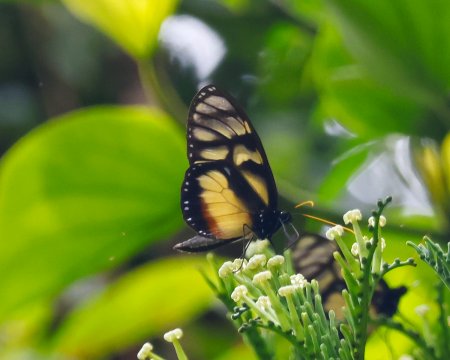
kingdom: Animalia
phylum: Arthropoda
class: Insecta
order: Lepidoptera
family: Nymphalidae
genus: Olyras
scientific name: Olyras insignis
